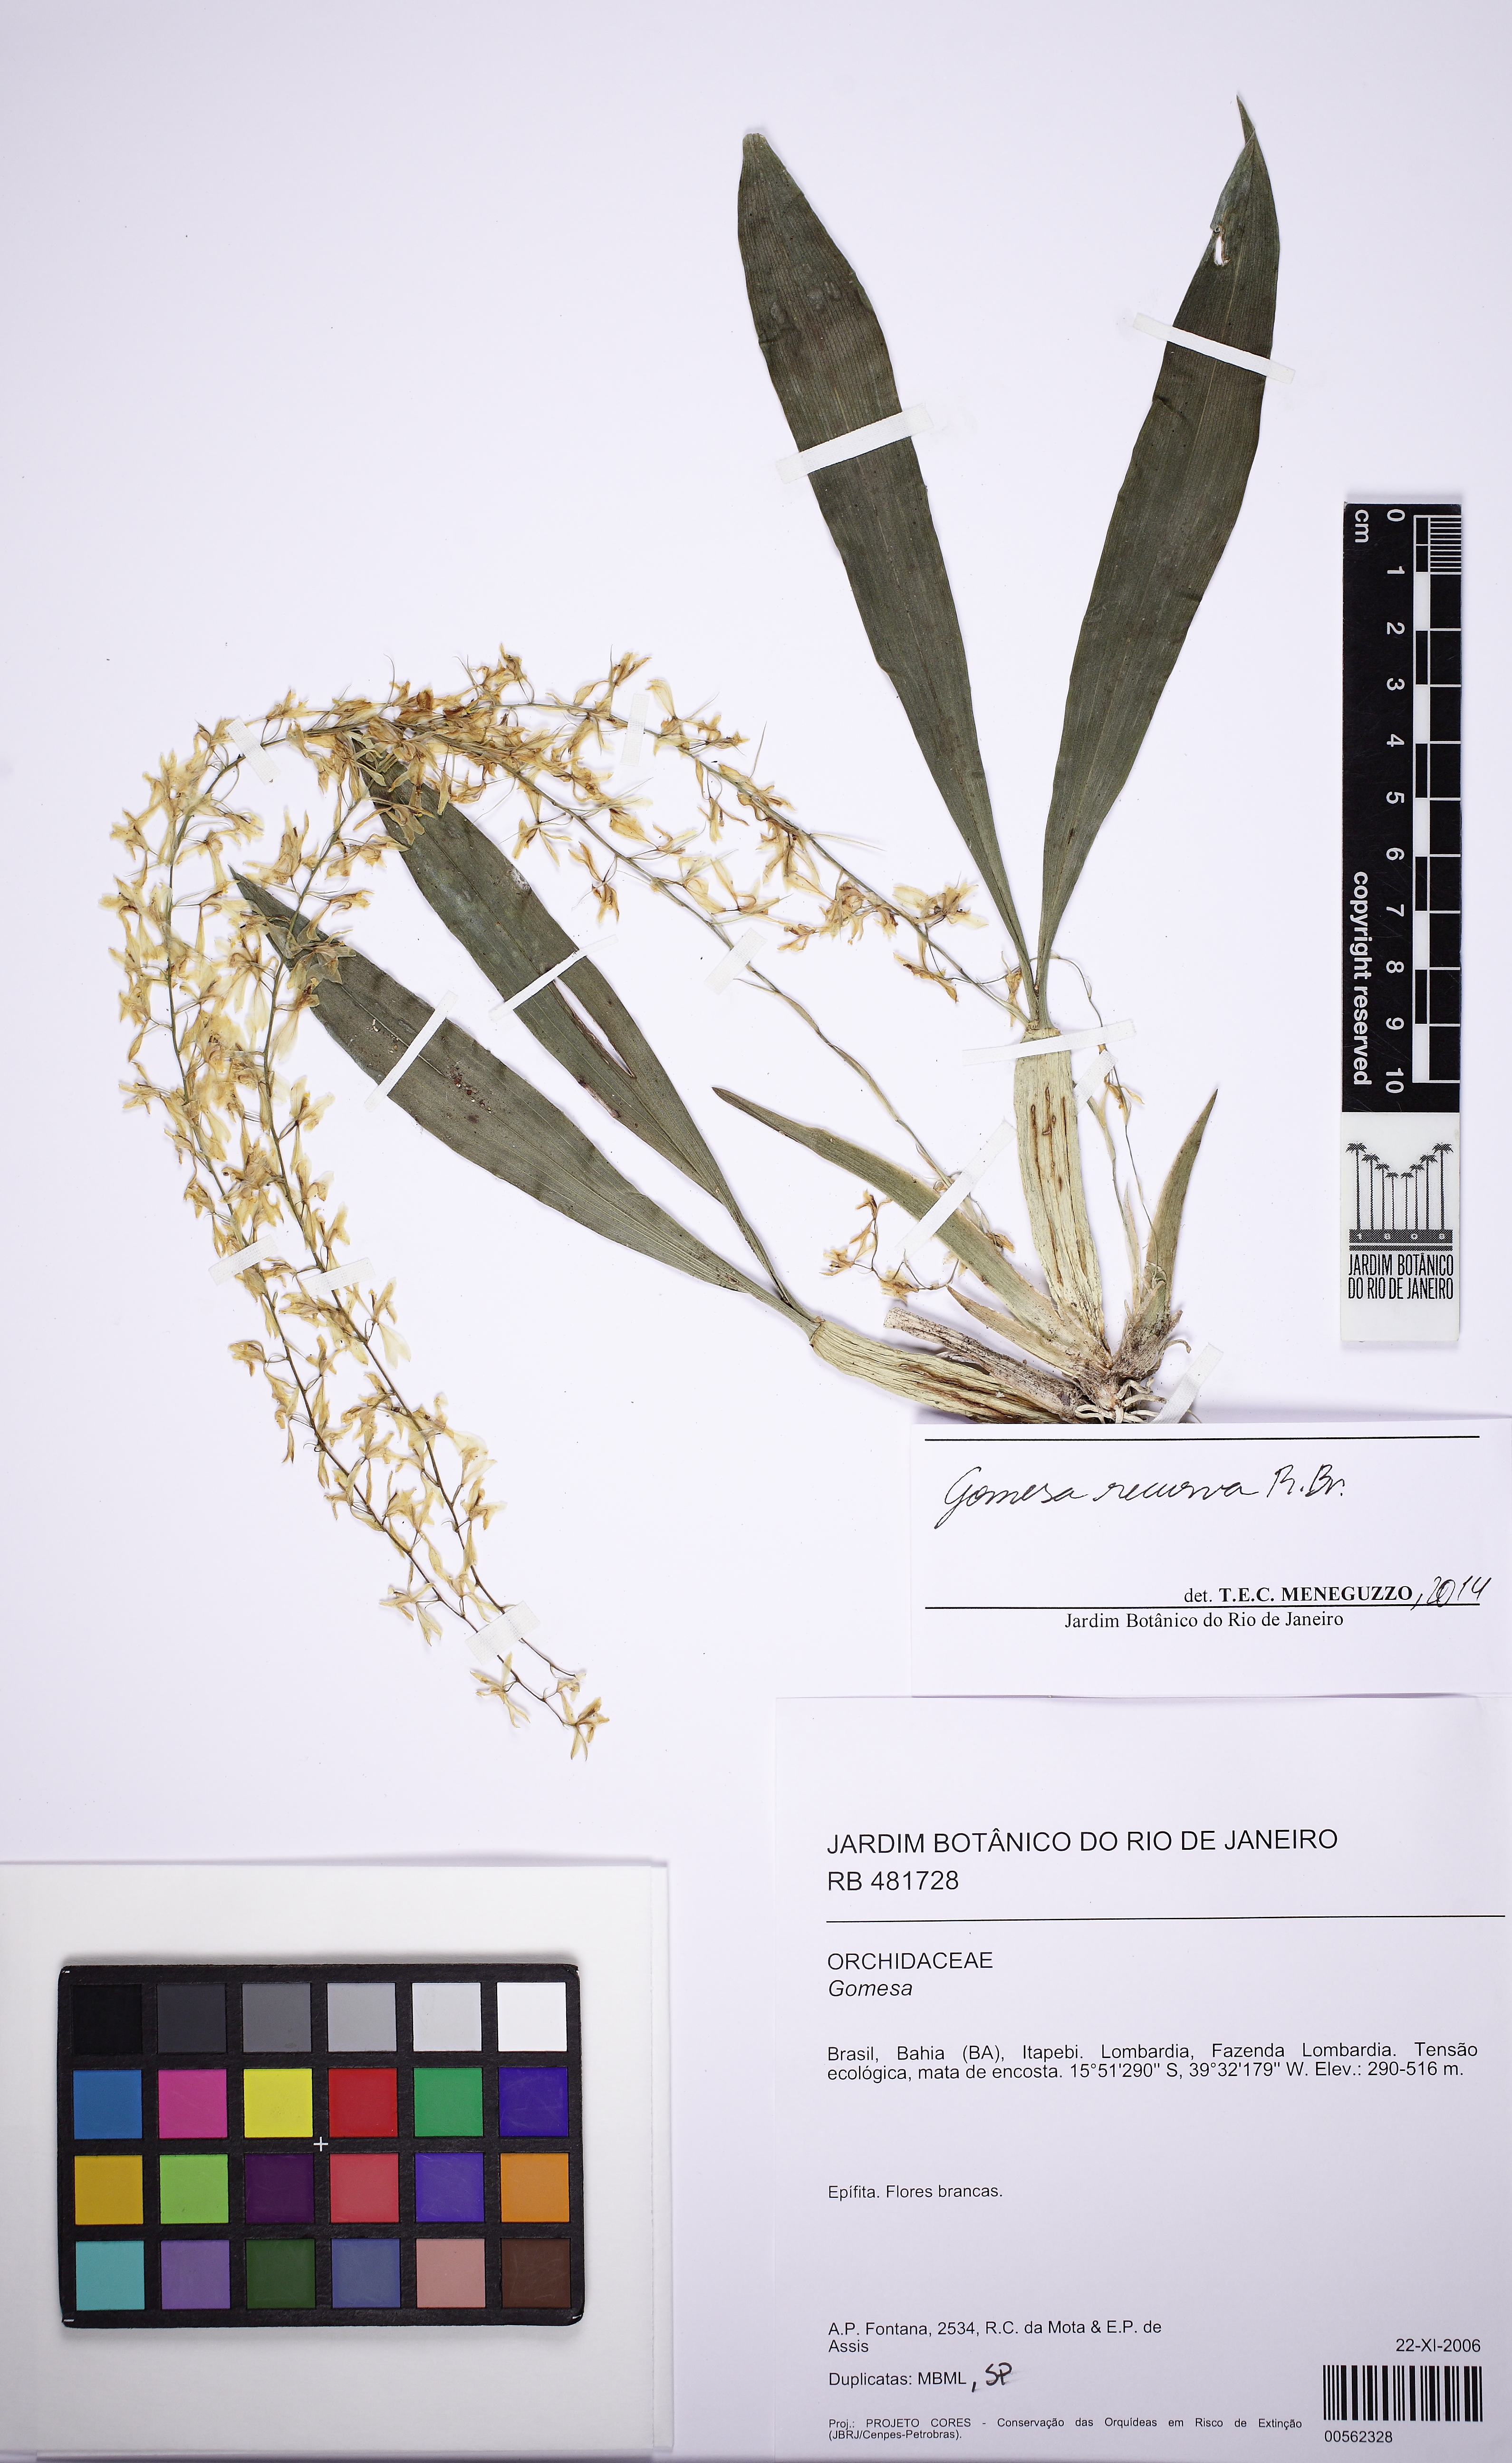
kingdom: Plantae
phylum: Tracheophyta
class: Liliopsida
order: Asparagales
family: Orchidaceae
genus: Gomesa
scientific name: Gomesa recurva
